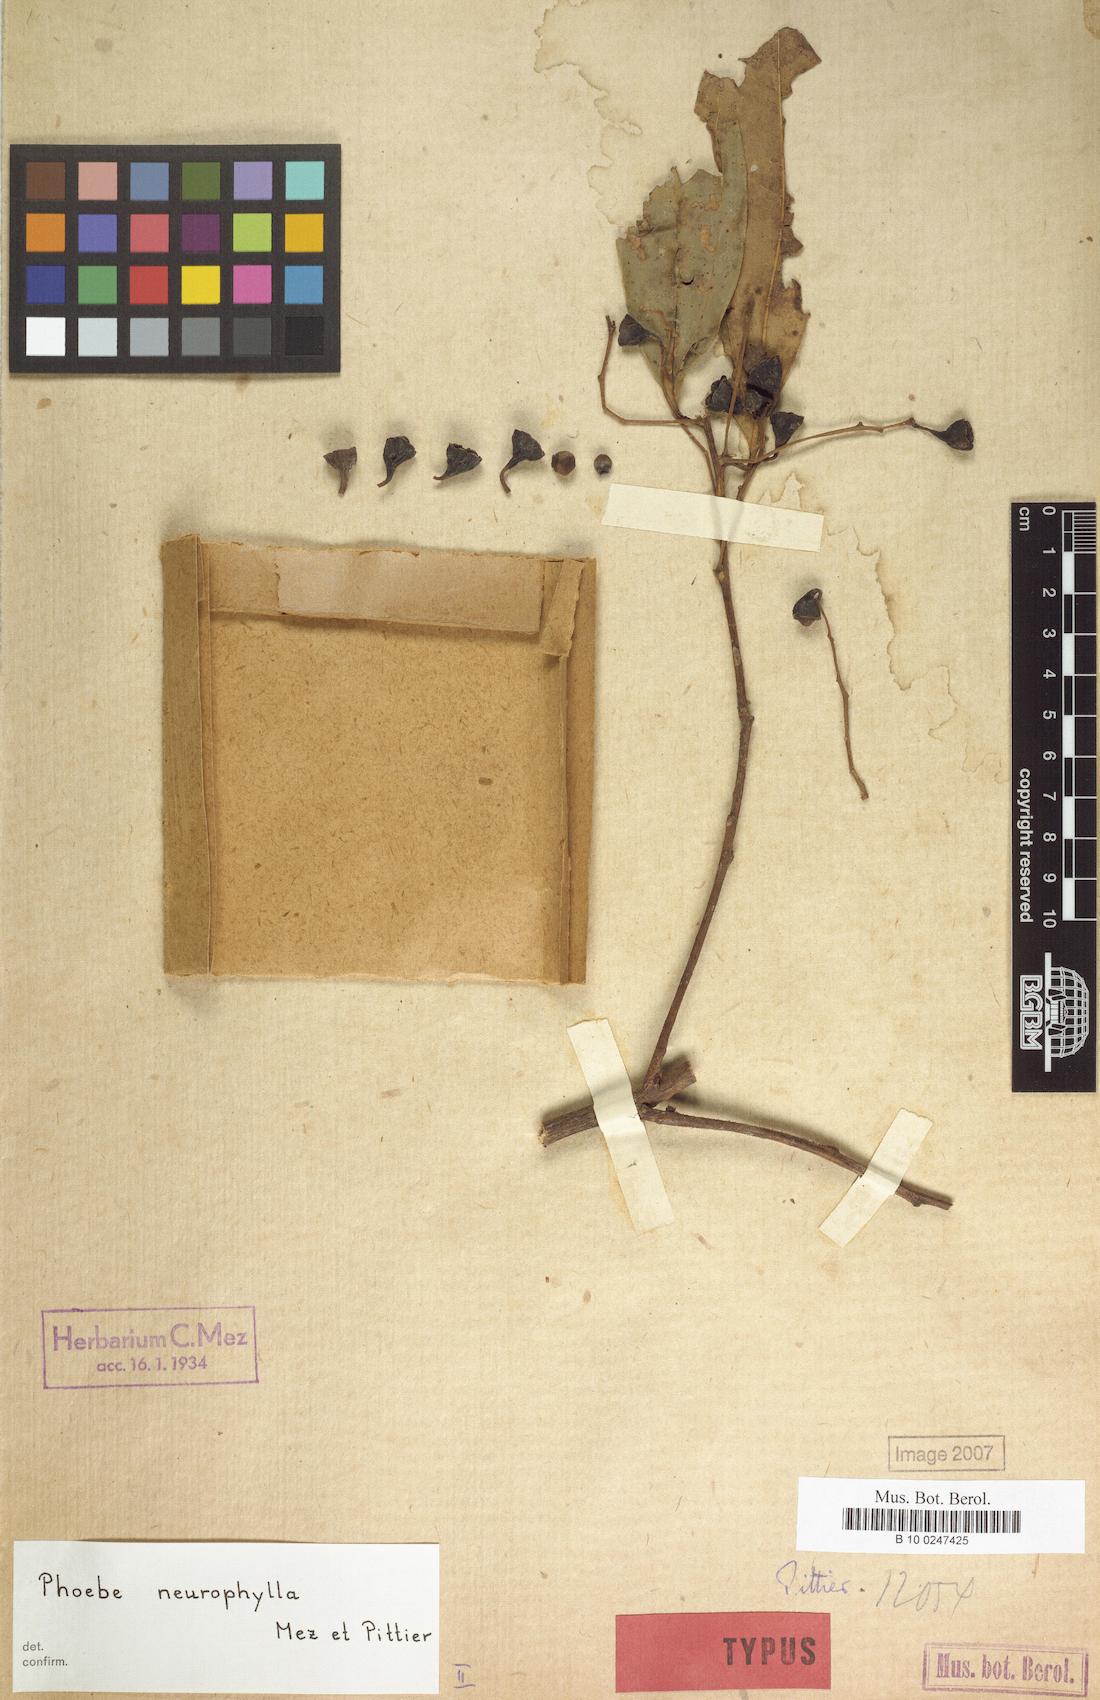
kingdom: Plantae
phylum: Tracheophyta
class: Magnoliopsida
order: Laurales
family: Lauraceae
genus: Aiouea
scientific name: Aiouea neurophylla
